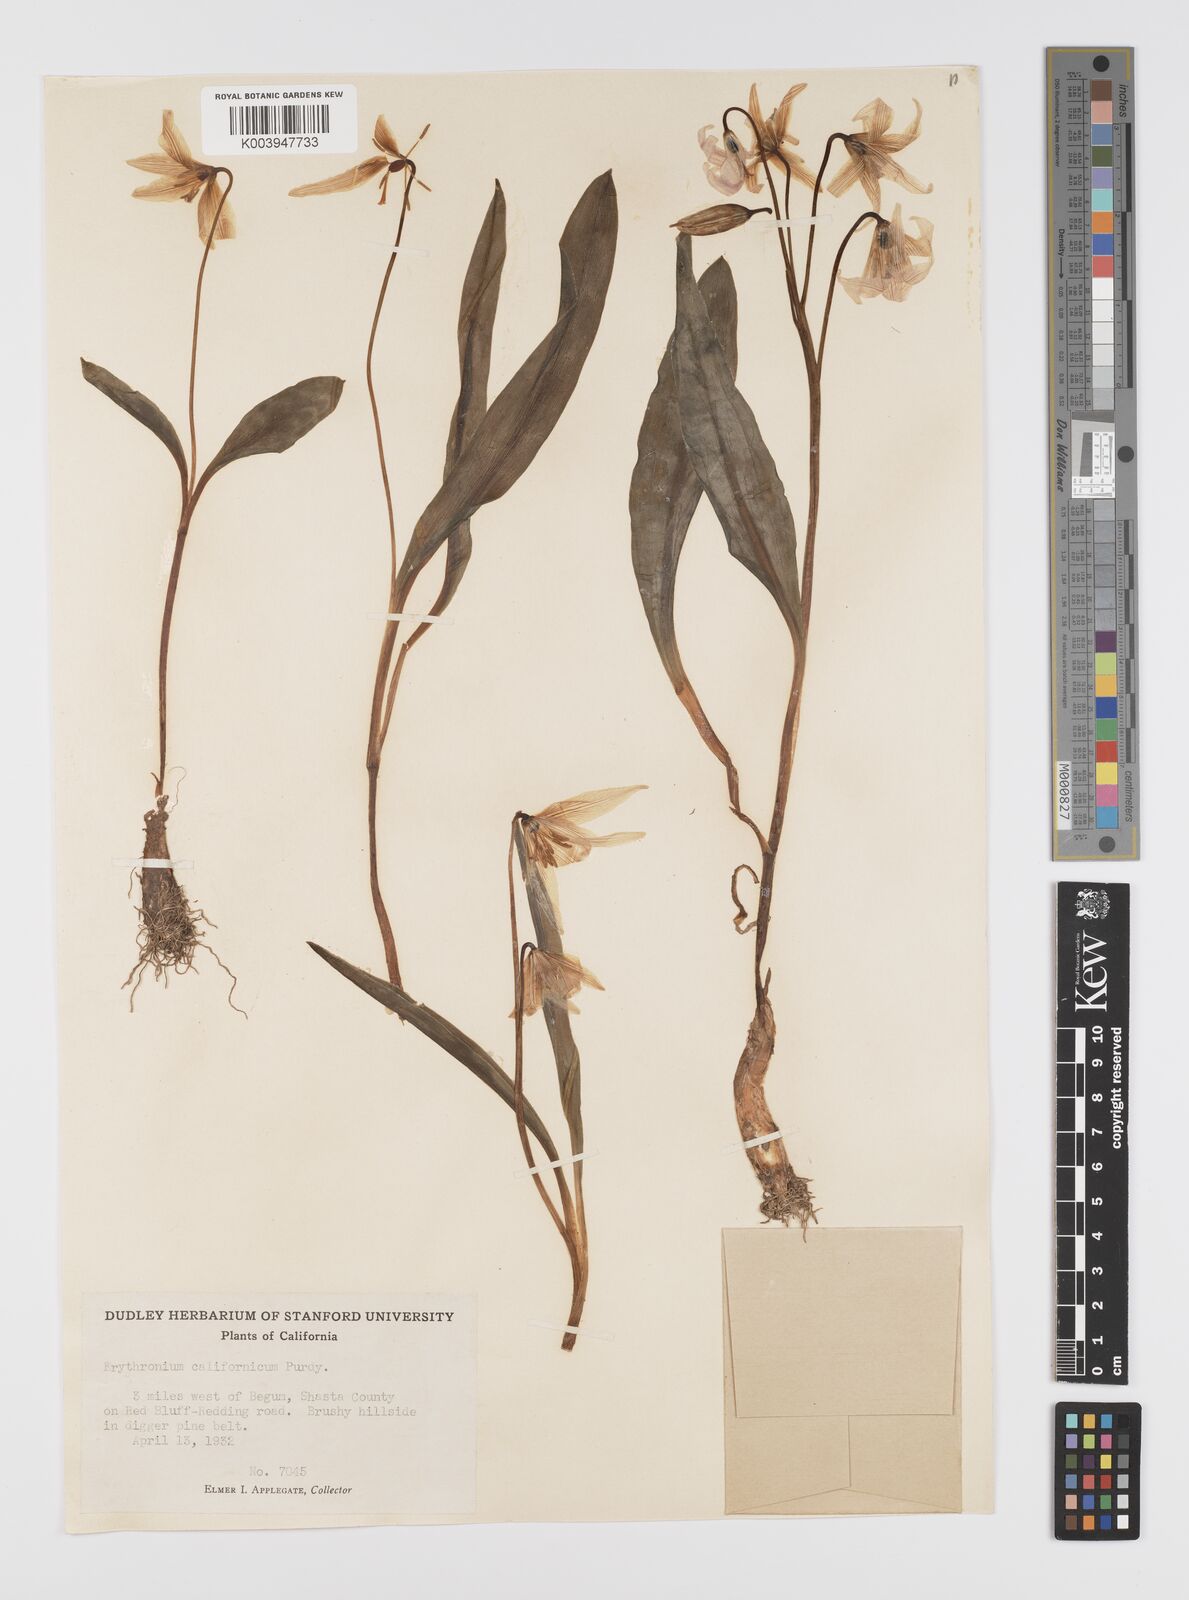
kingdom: Plantae
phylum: Tracheophyta
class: Liliopsida
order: Liliales
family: Liliaceae
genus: Erythronium
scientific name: Erythronium californicum
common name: Fawn-lily
